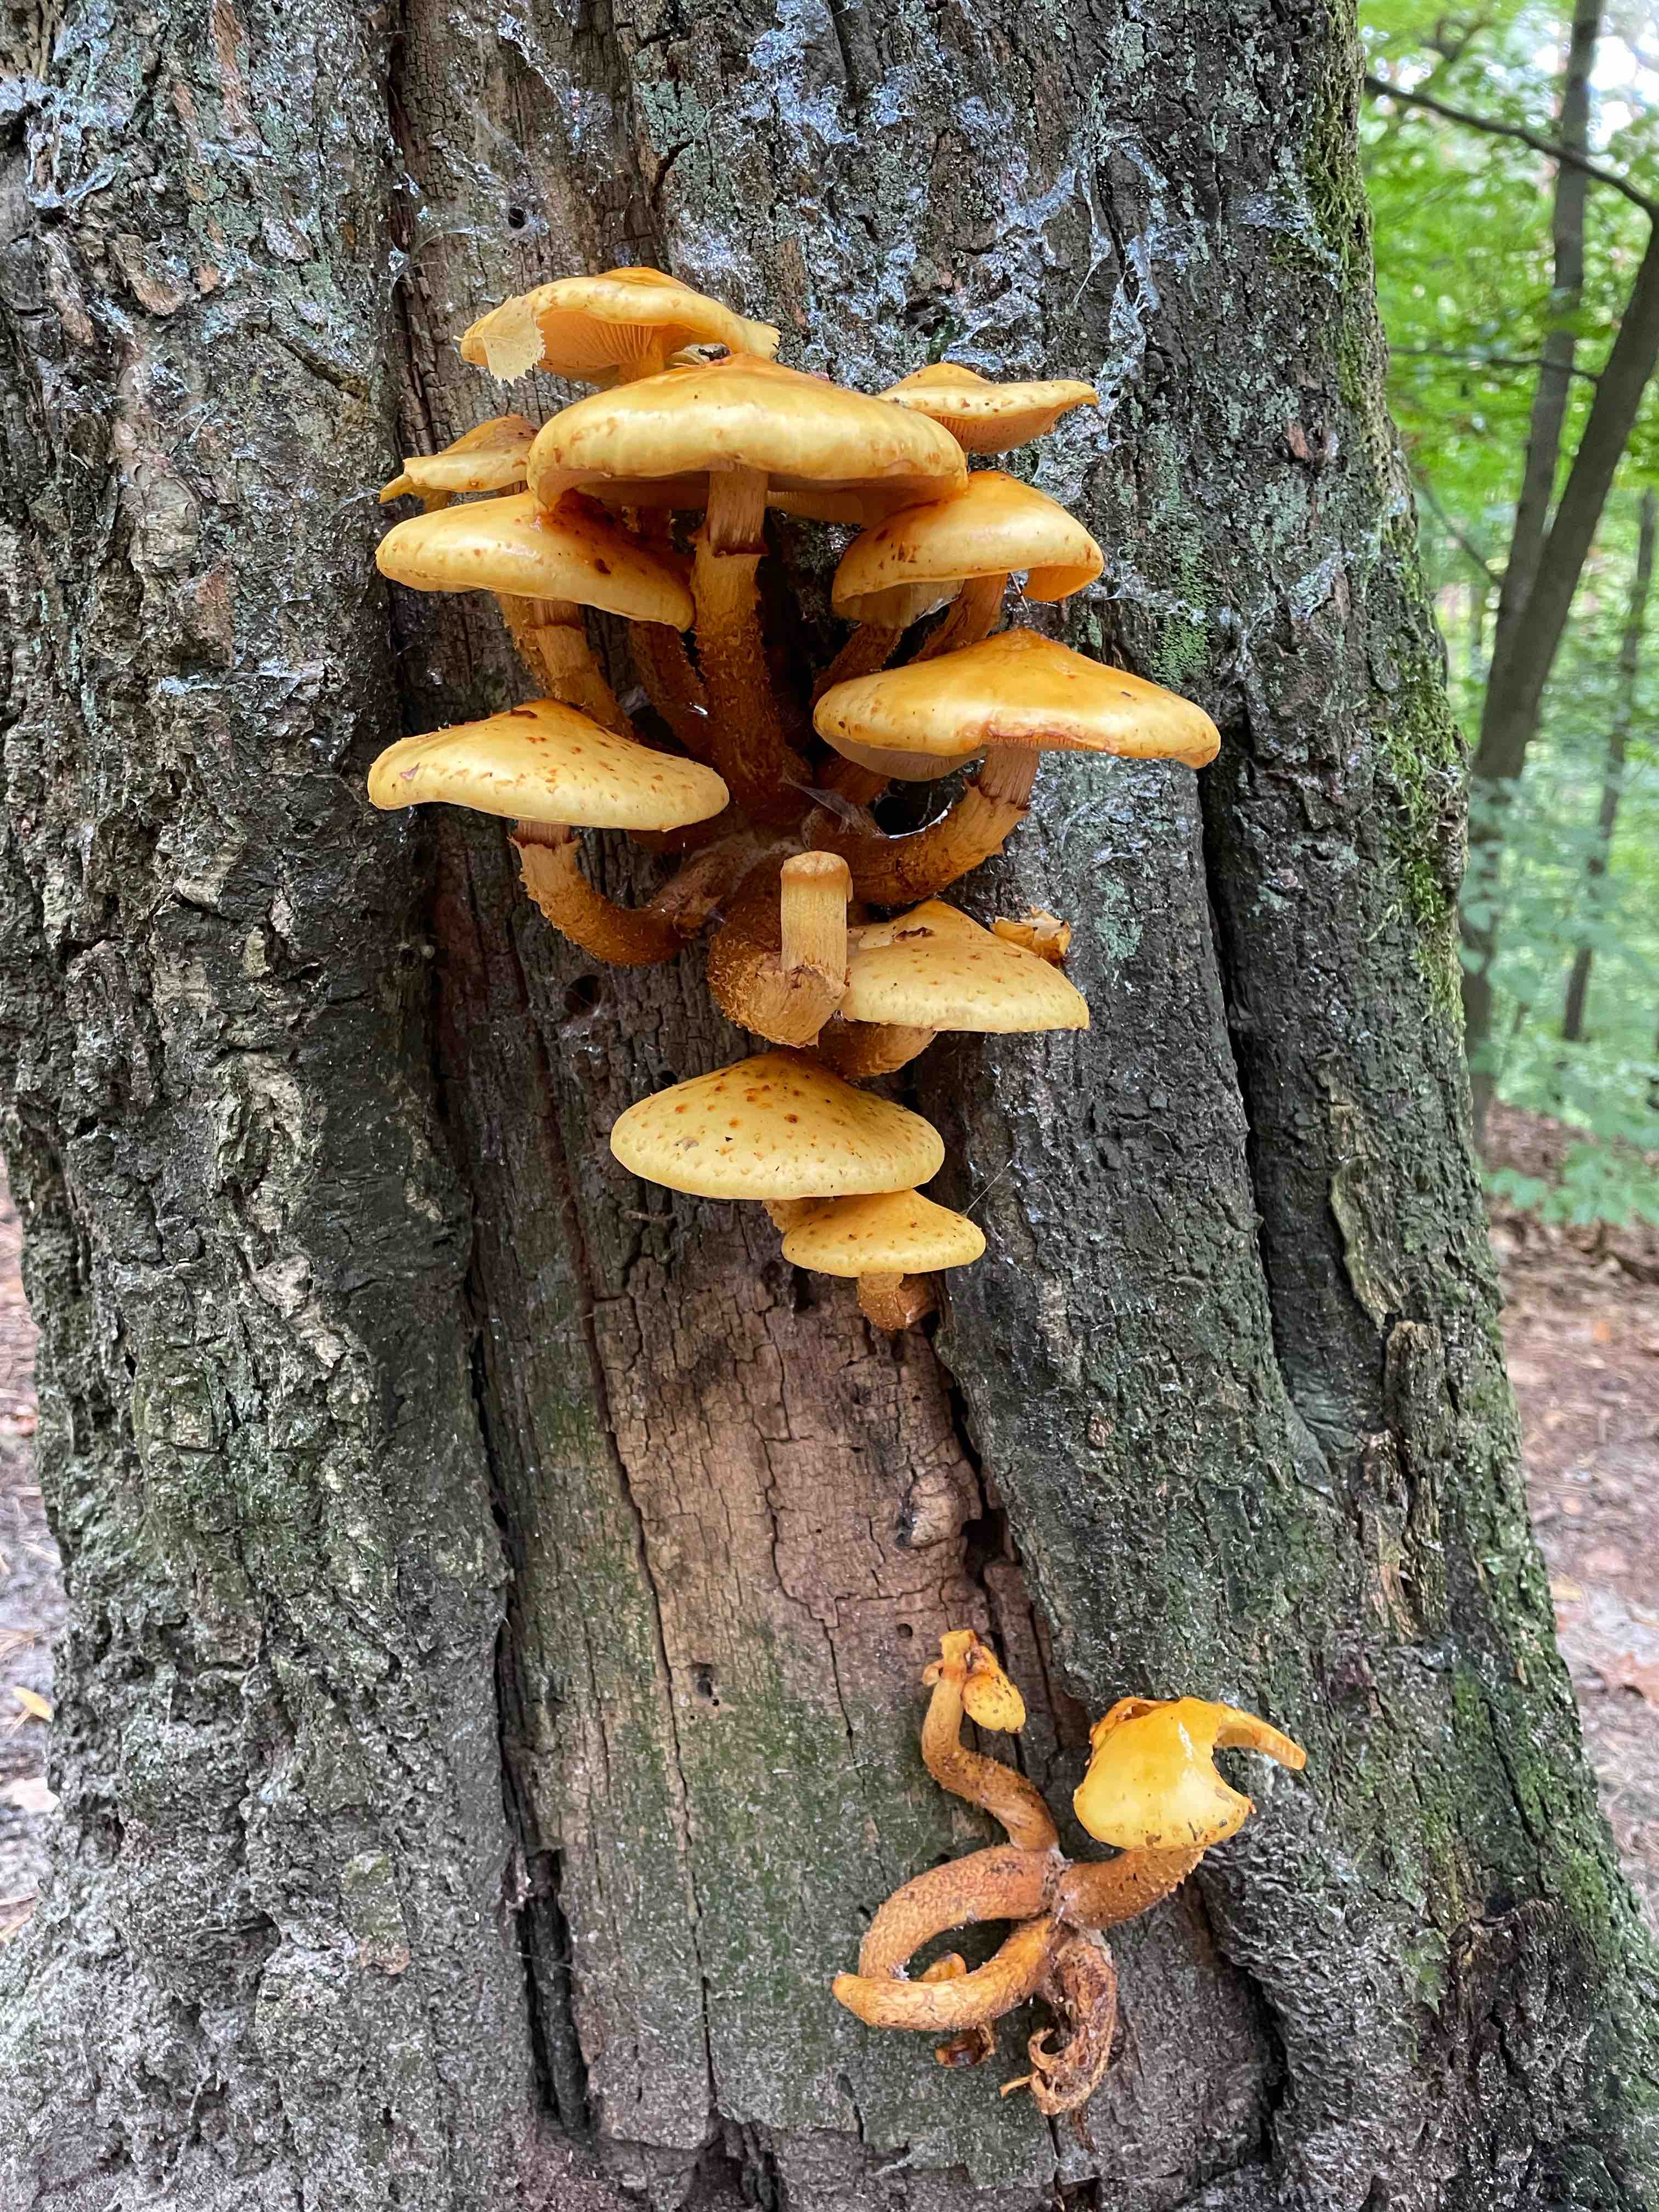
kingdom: Fungi
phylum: Basidiomycota
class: Agaricomycetes
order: Agaricales
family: Strophariaceae
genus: Pholiota
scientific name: Pholiota
